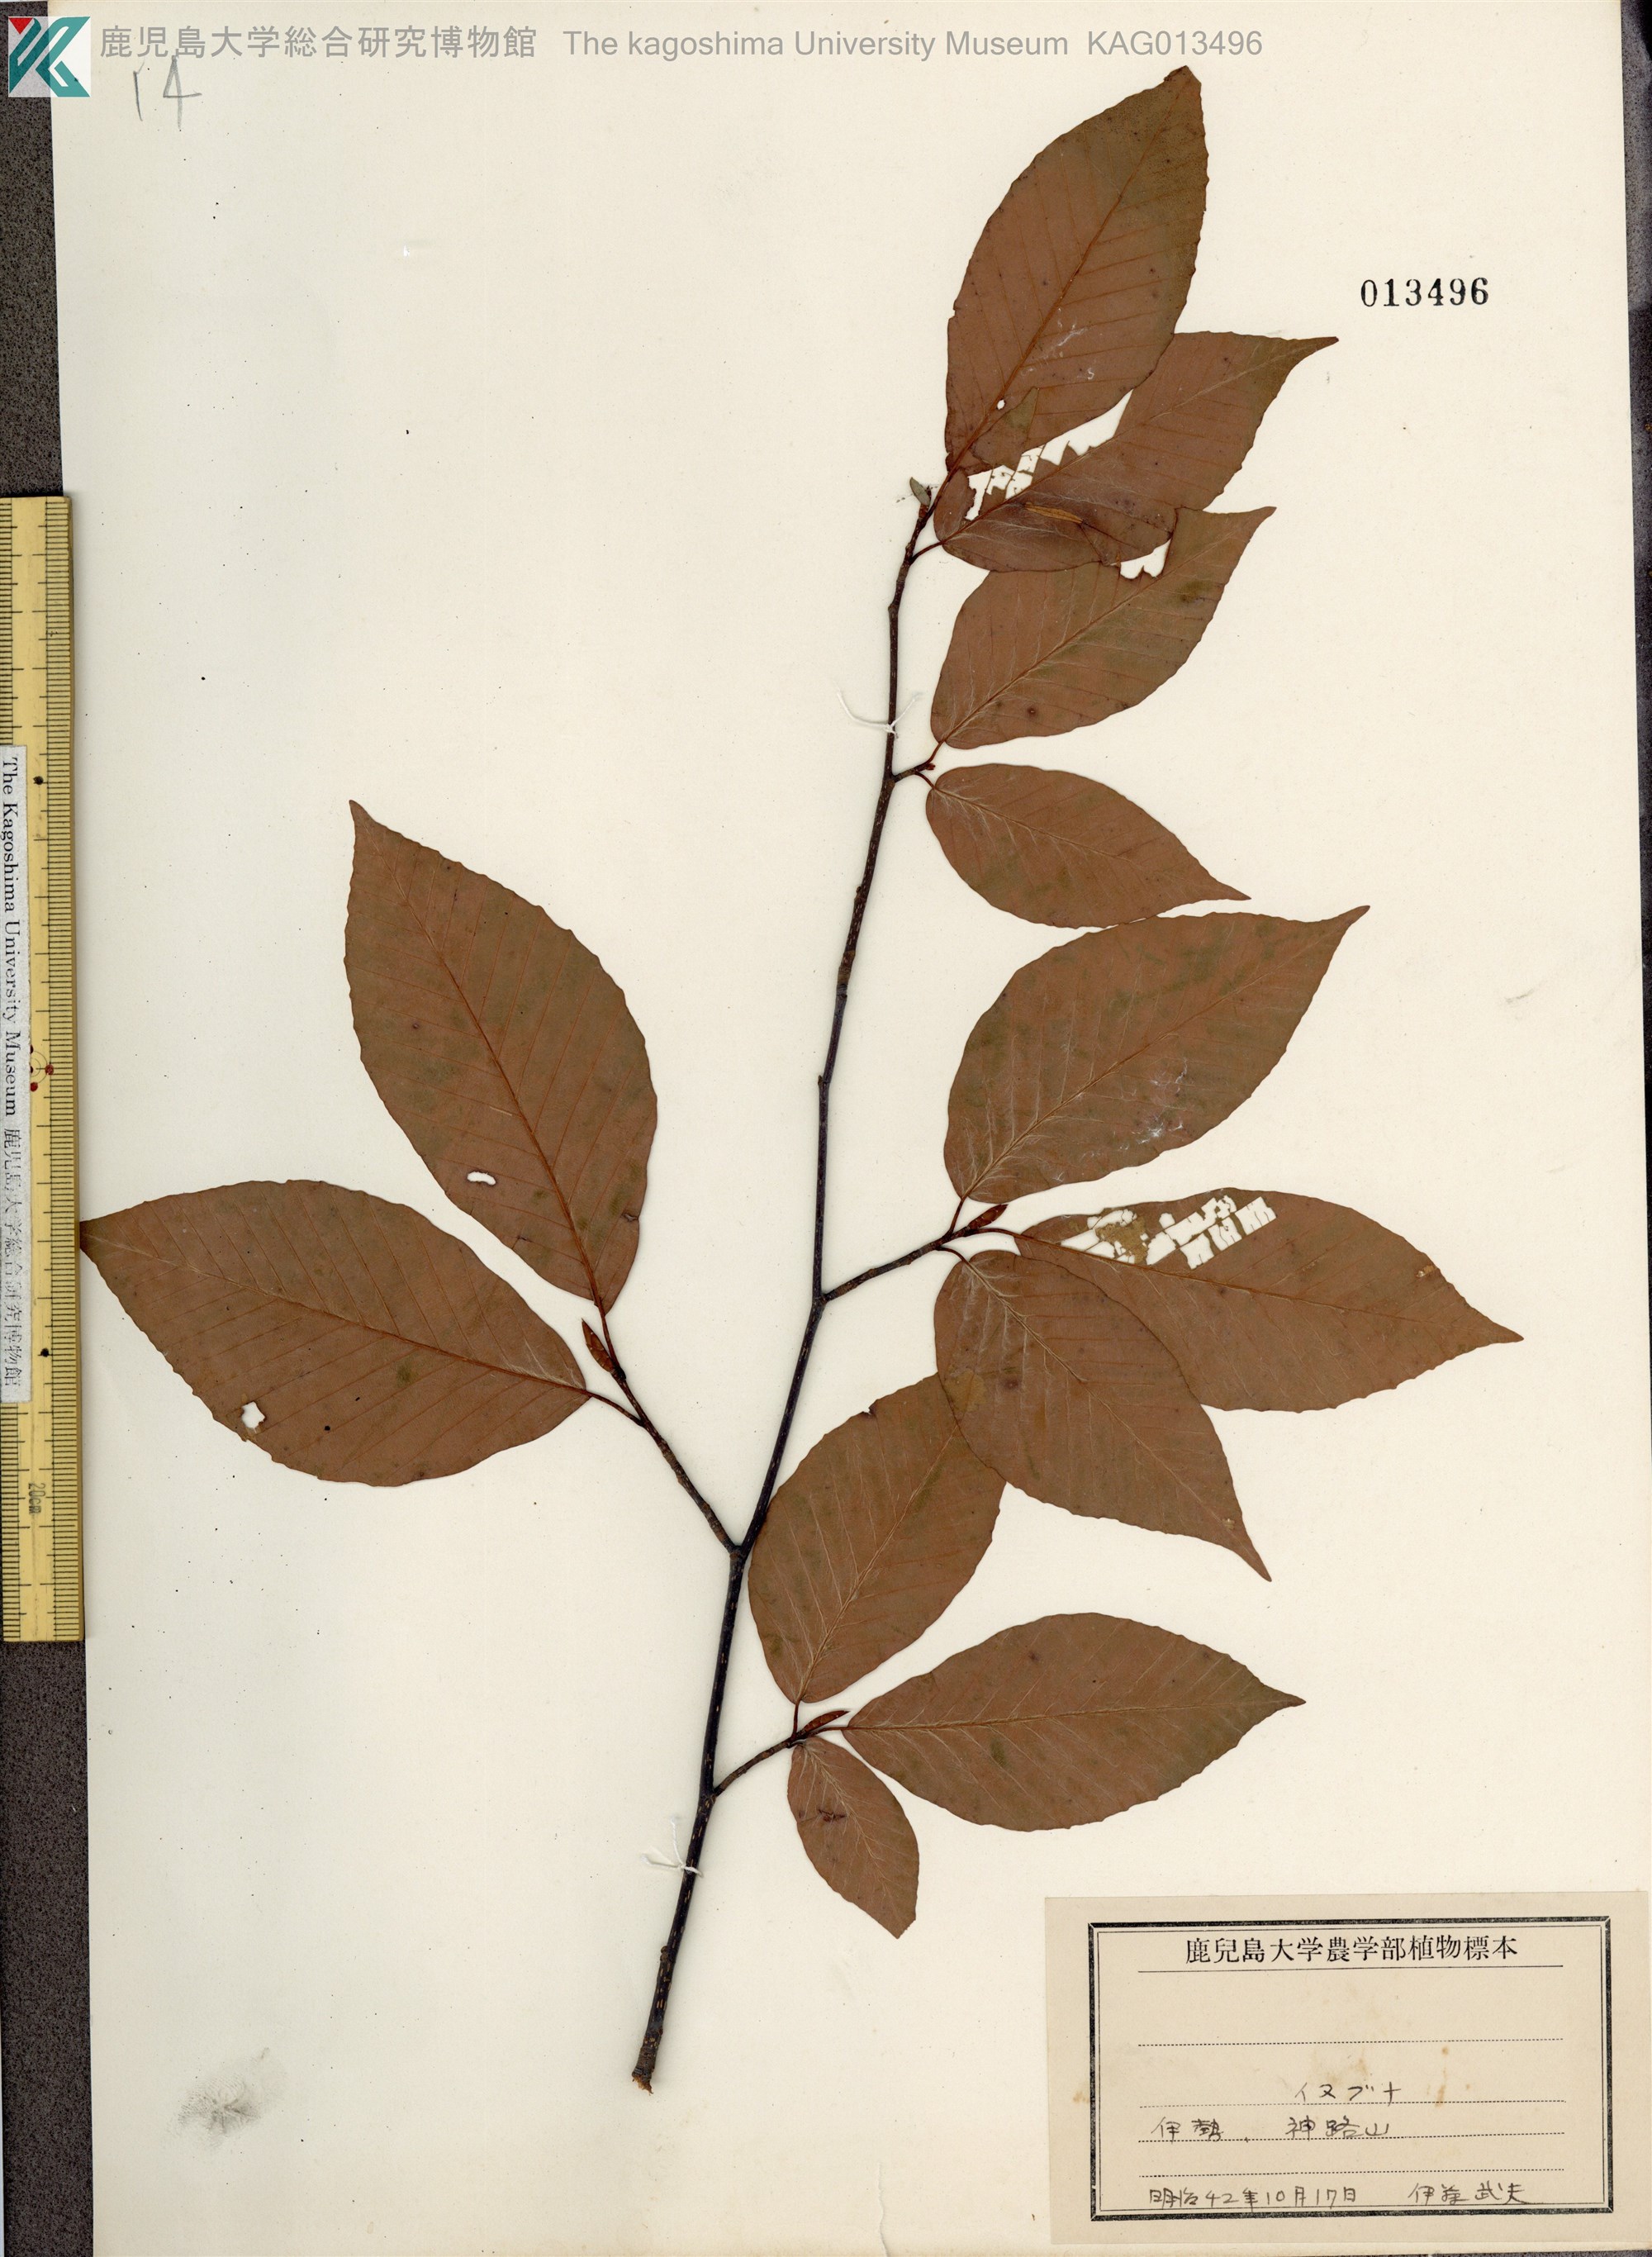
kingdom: Plantae
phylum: Tracheophyta
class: Magnoliopsida
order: Fagales
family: Fagaceae
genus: Fagus
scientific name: Fagus japonica
